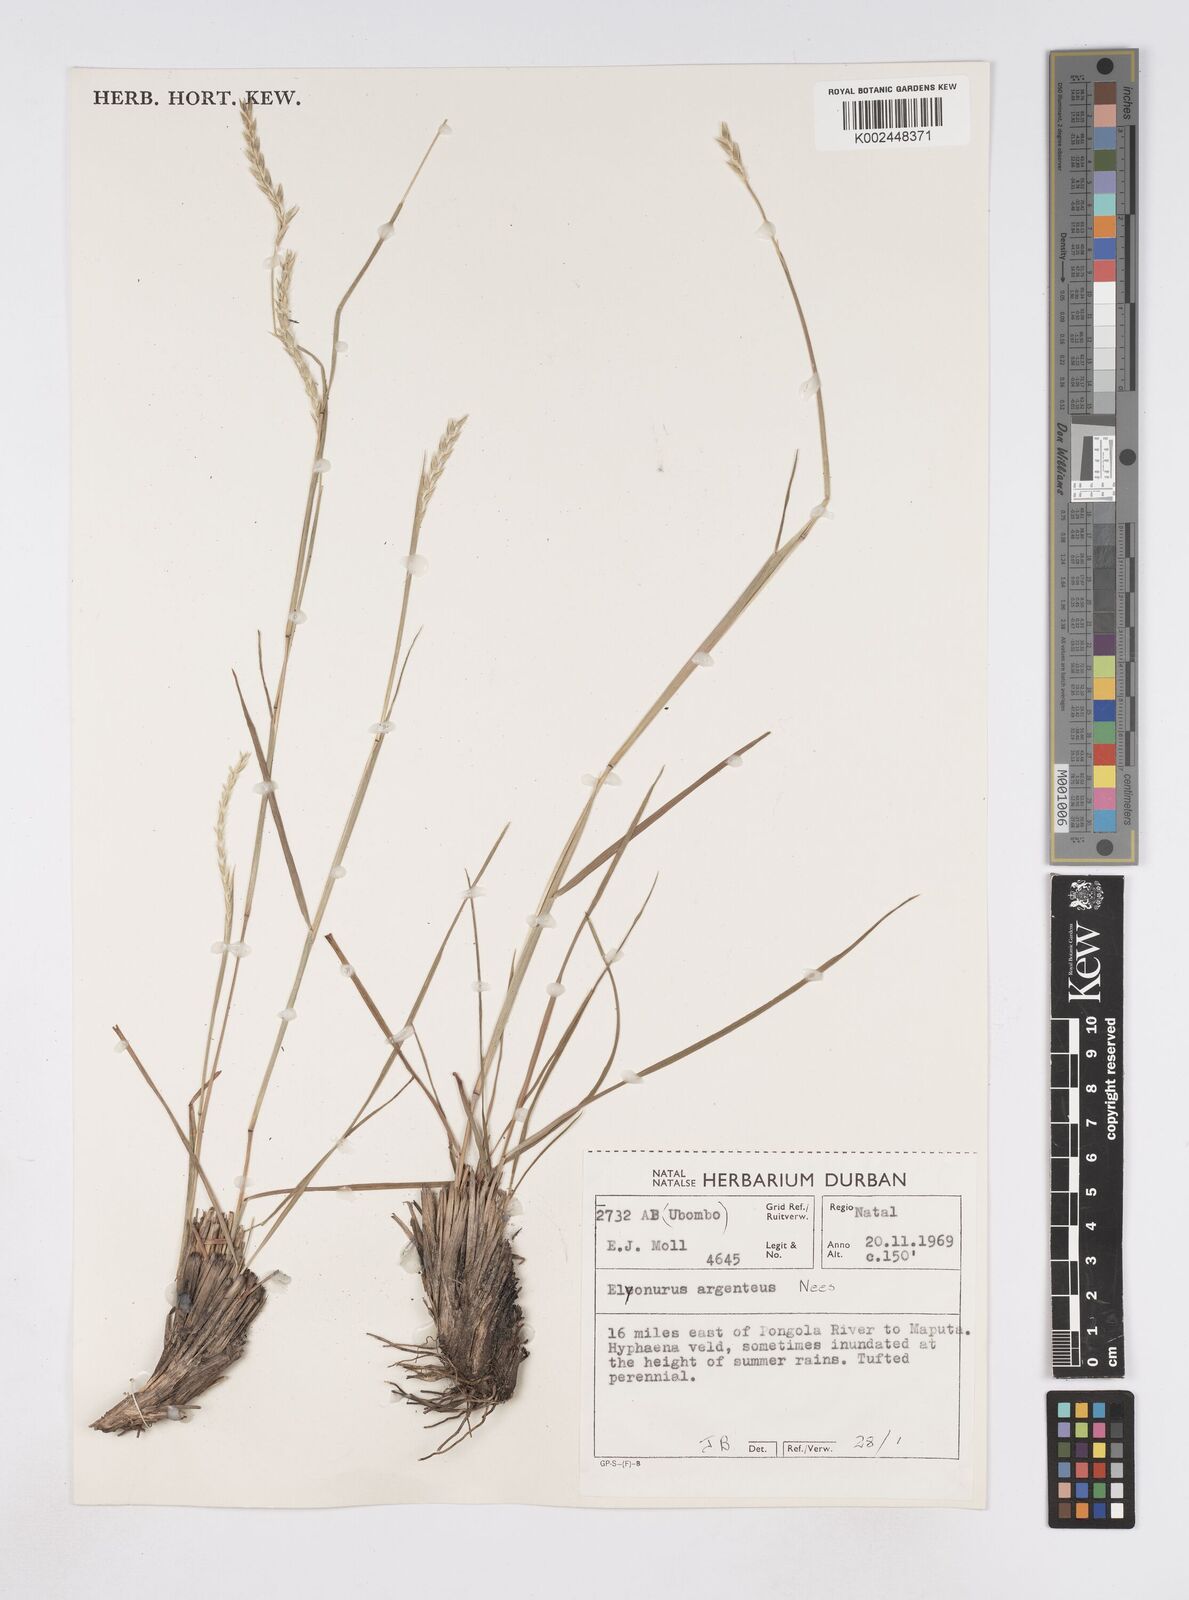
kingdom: Plantae
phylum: Tracheophyta
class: Liliopsida
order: Poales
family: Poaceae
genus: Elionurus
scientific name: Elionurus muticus
